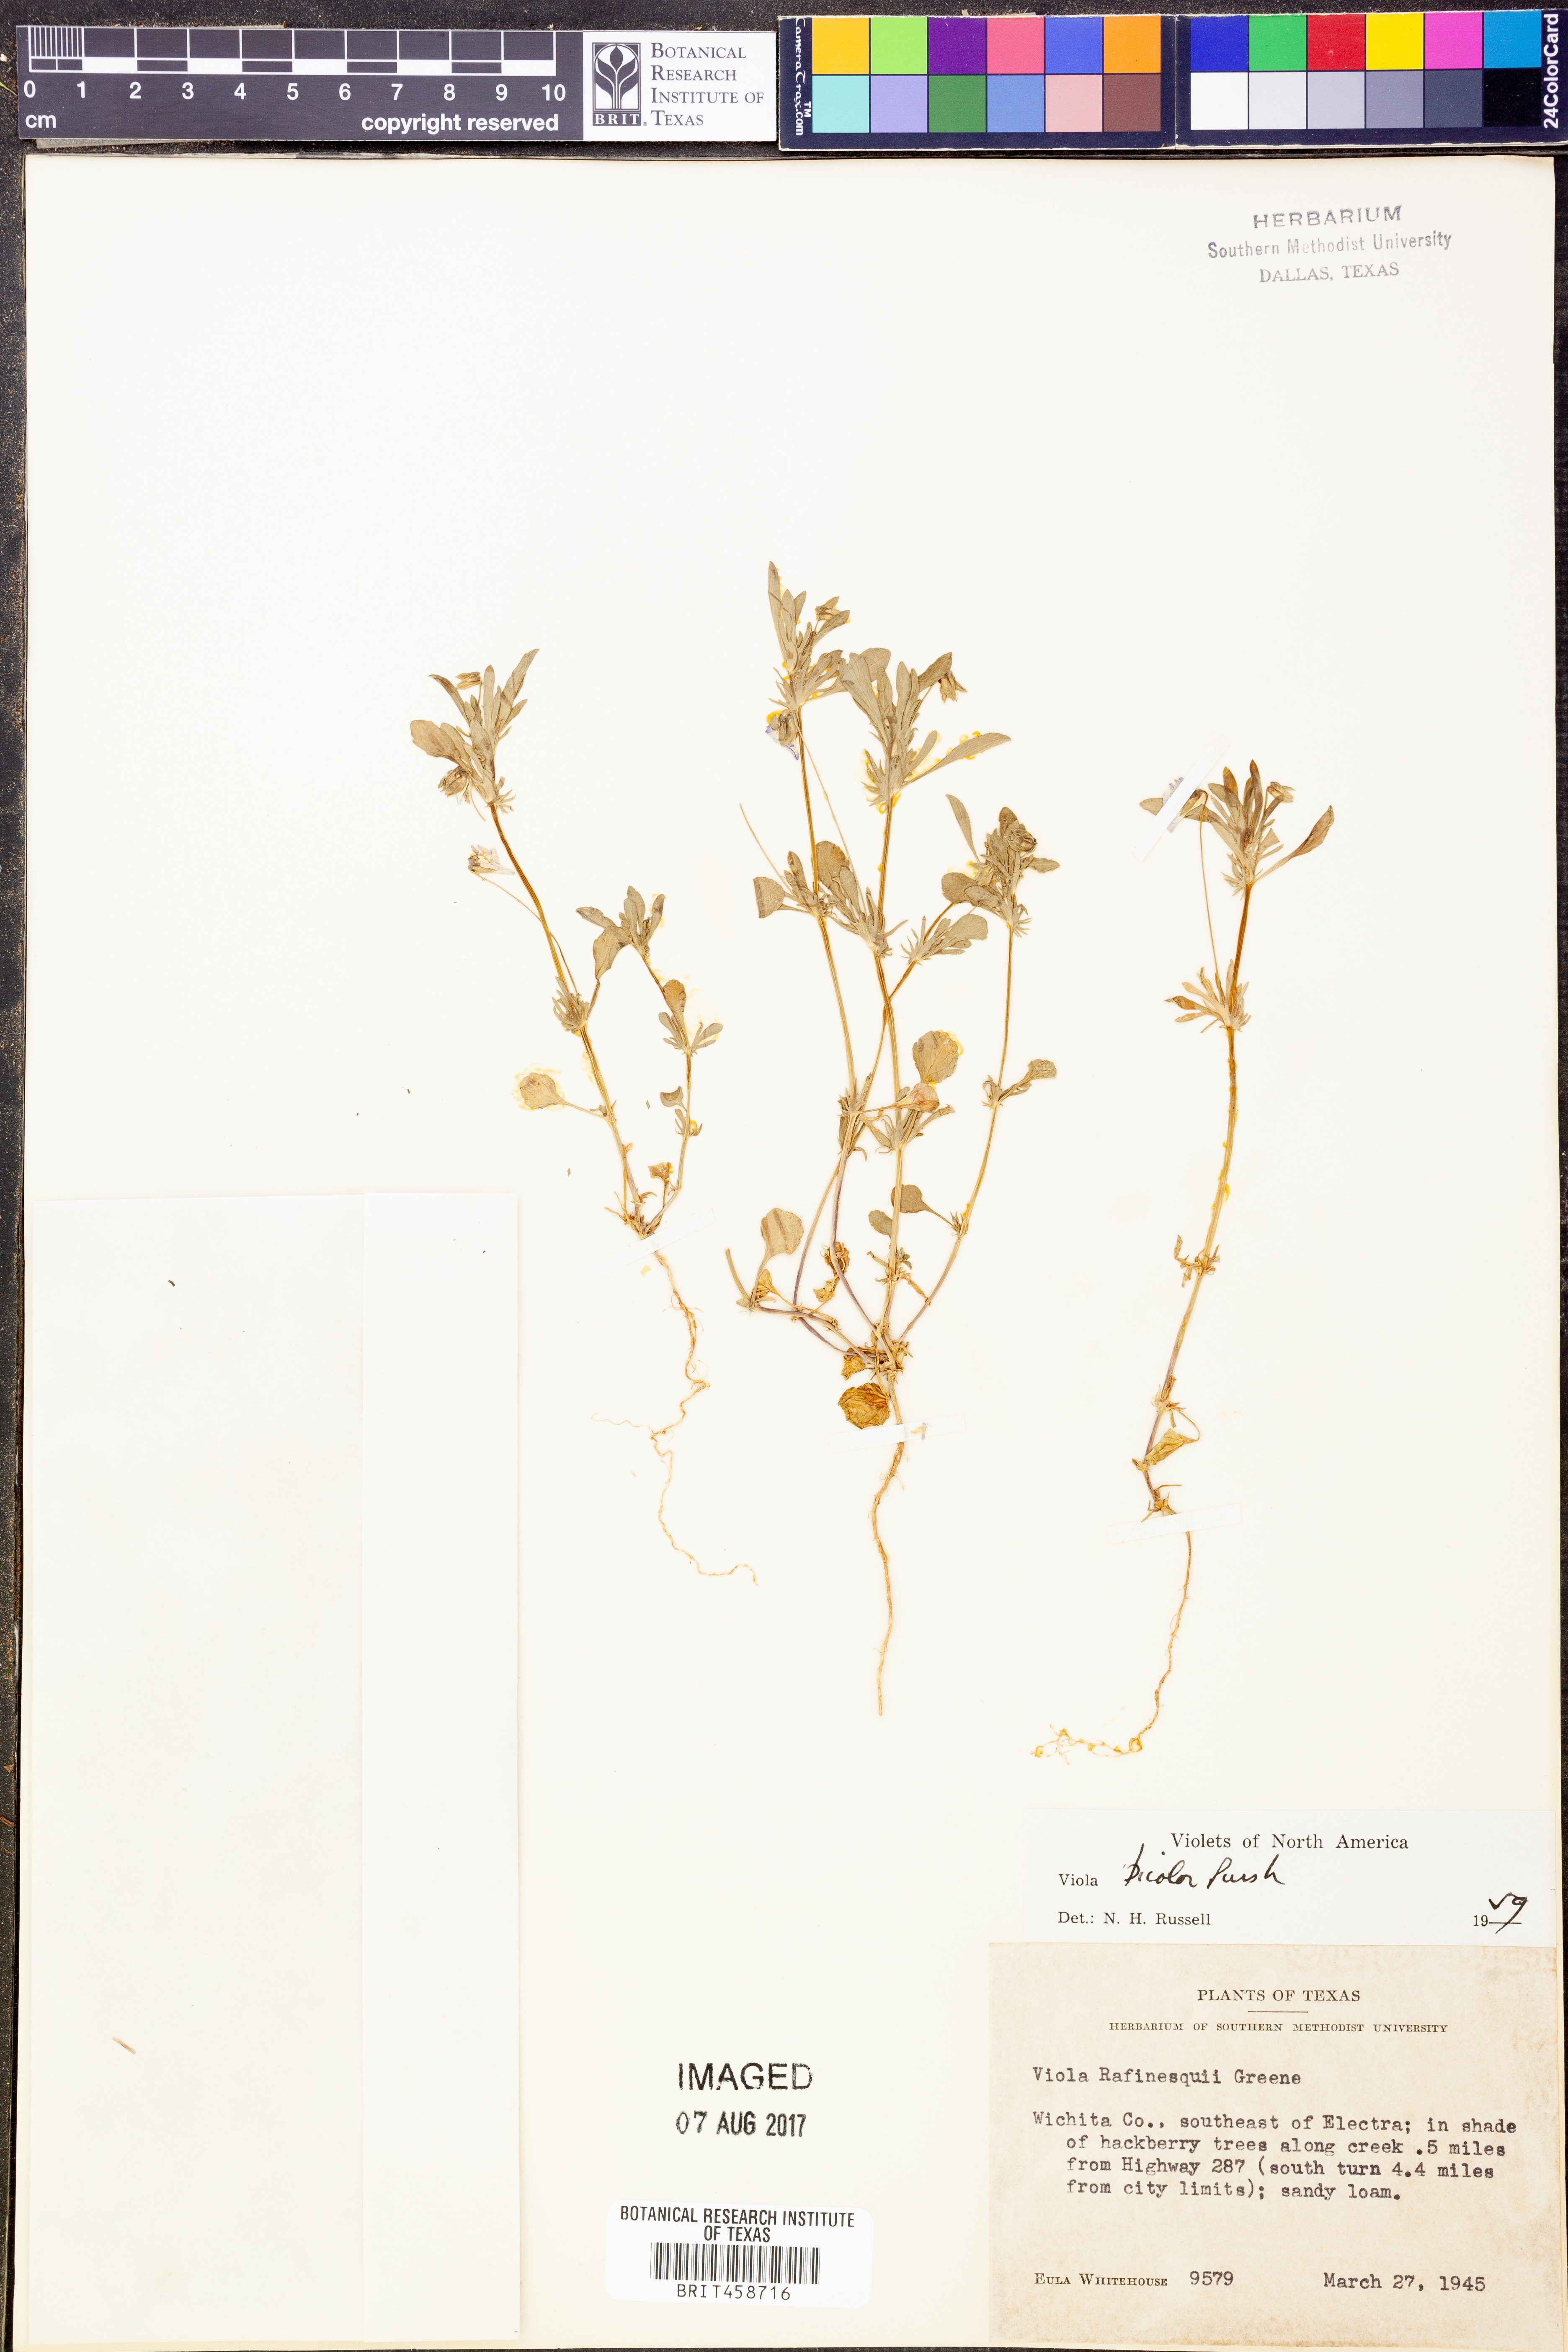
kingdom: Plantae
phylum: Tracheophyta
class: Magnoliopsida
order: Malpighiales
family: Violaceae
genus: Viola
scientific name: Viola rafinesquei
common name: American field pansy
